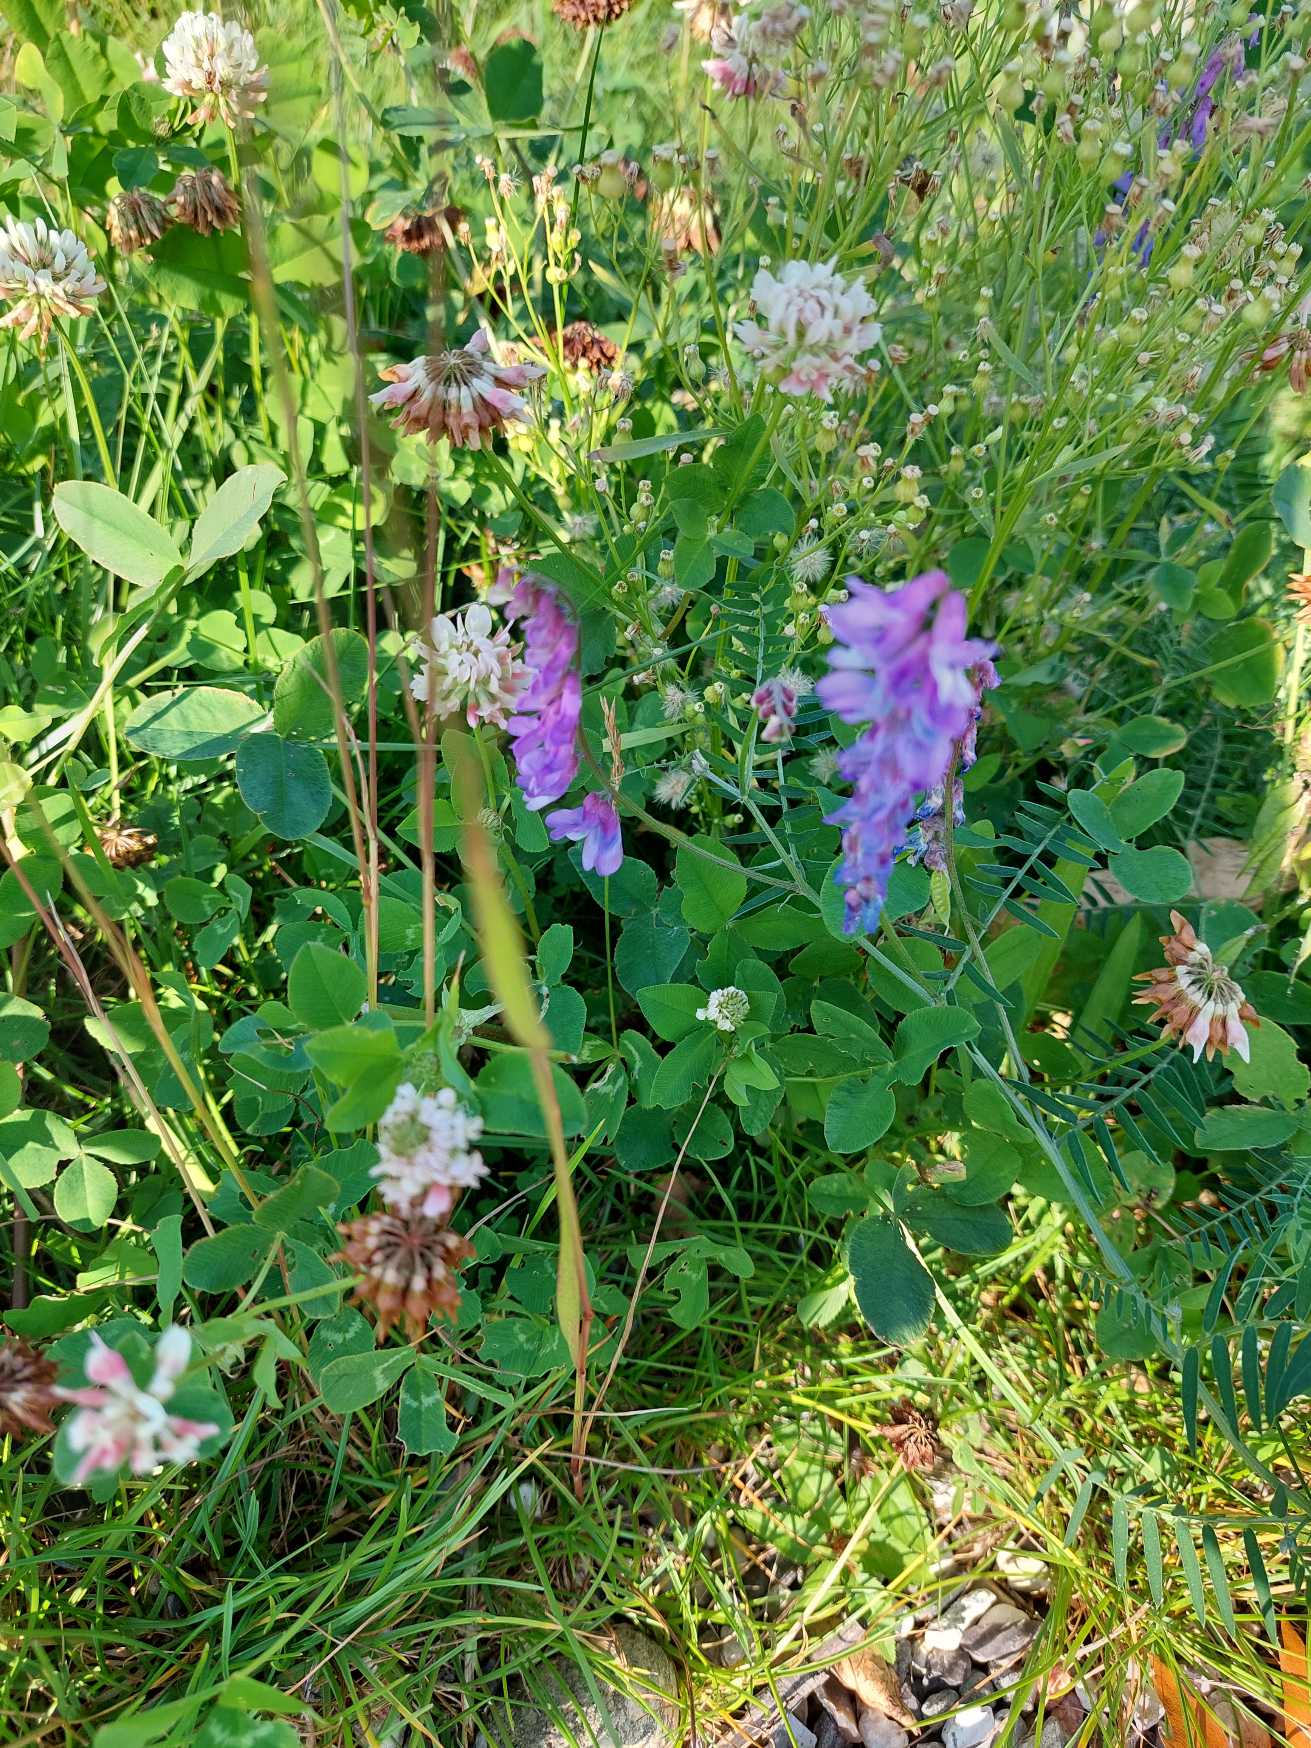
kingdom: Plantae
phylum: Tracheophyta
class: Magnoliopsida
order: Fabales
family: Fabaceae
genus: Vicia
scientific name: Vicia cracca
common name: Muse-vikke
